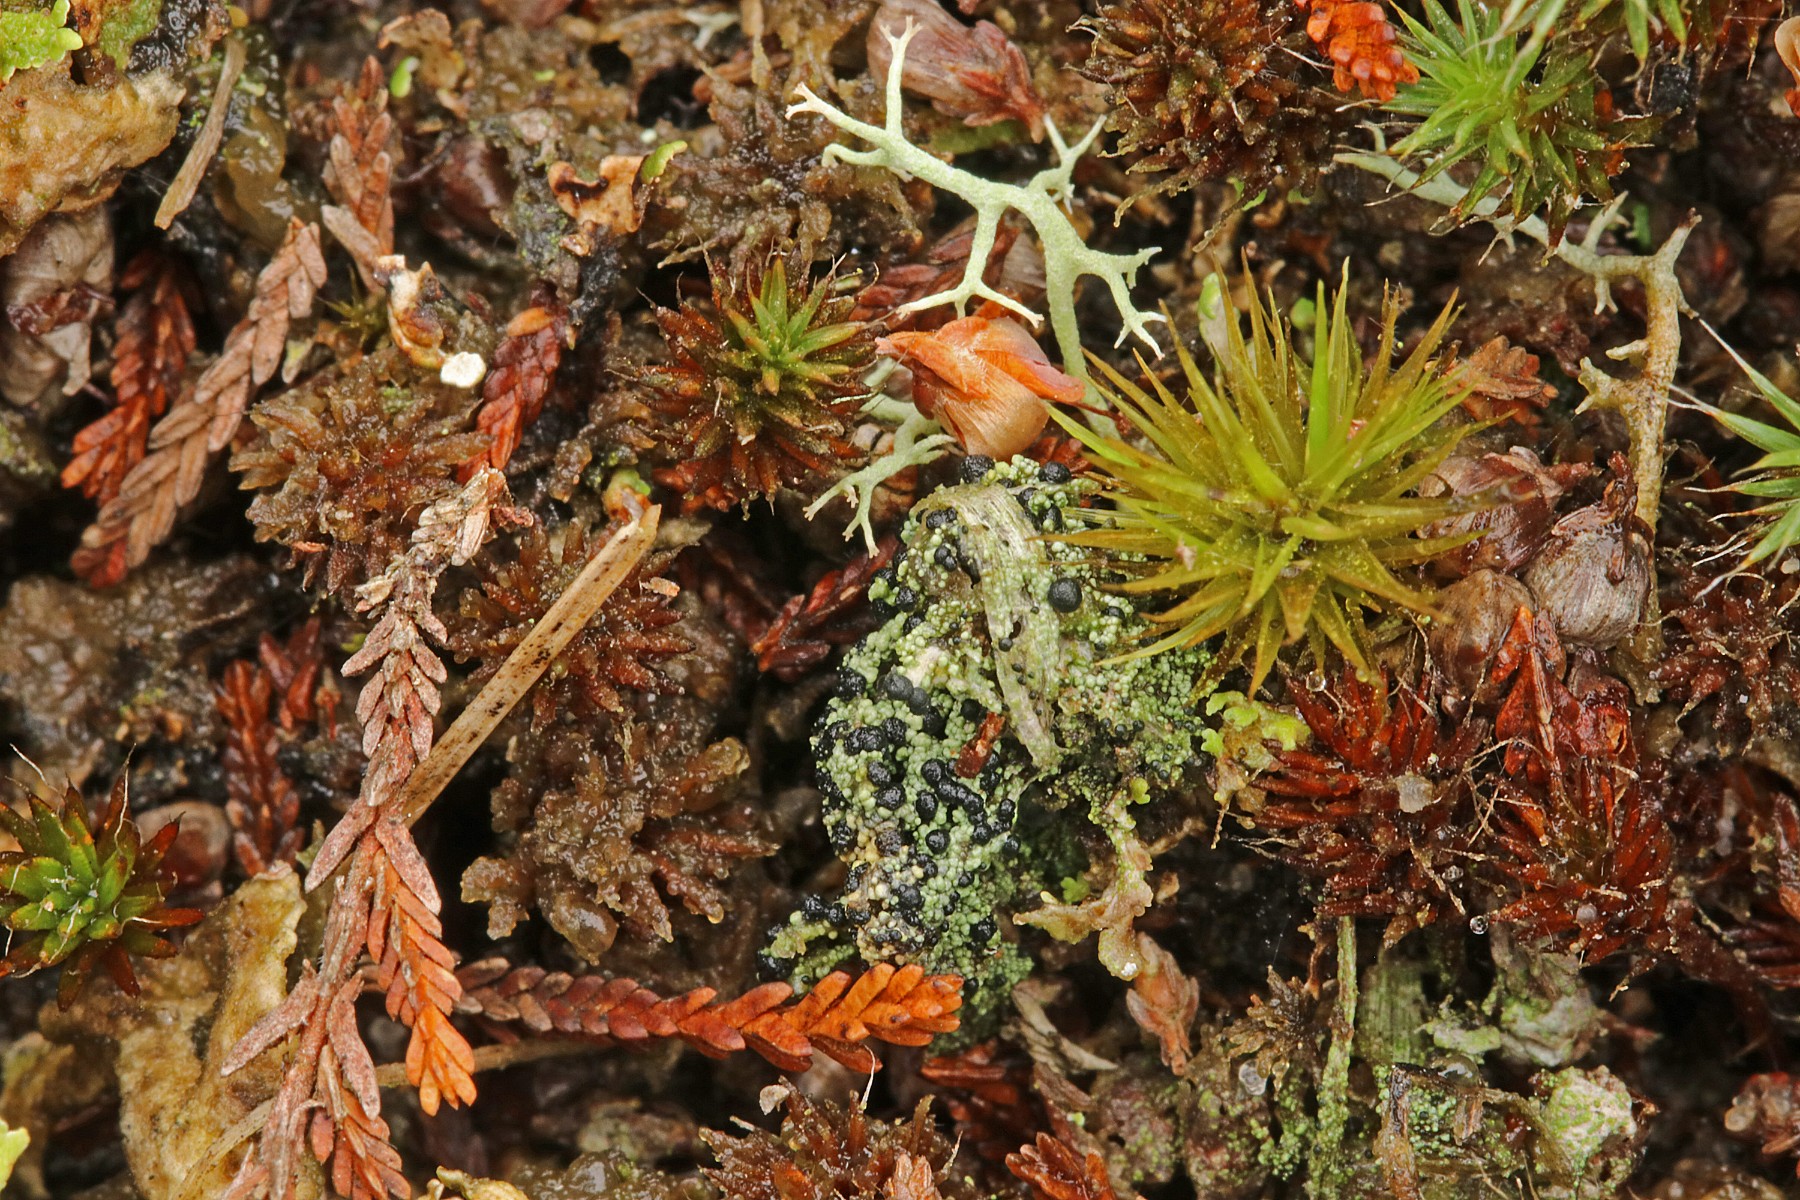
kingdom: Fungi
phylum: Ascomycota
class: Lecanoromycetes
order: Lecanorales
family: Byssolomataceae
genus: Micarea
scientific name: Micarea lignaria
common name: tørve-knaplav
